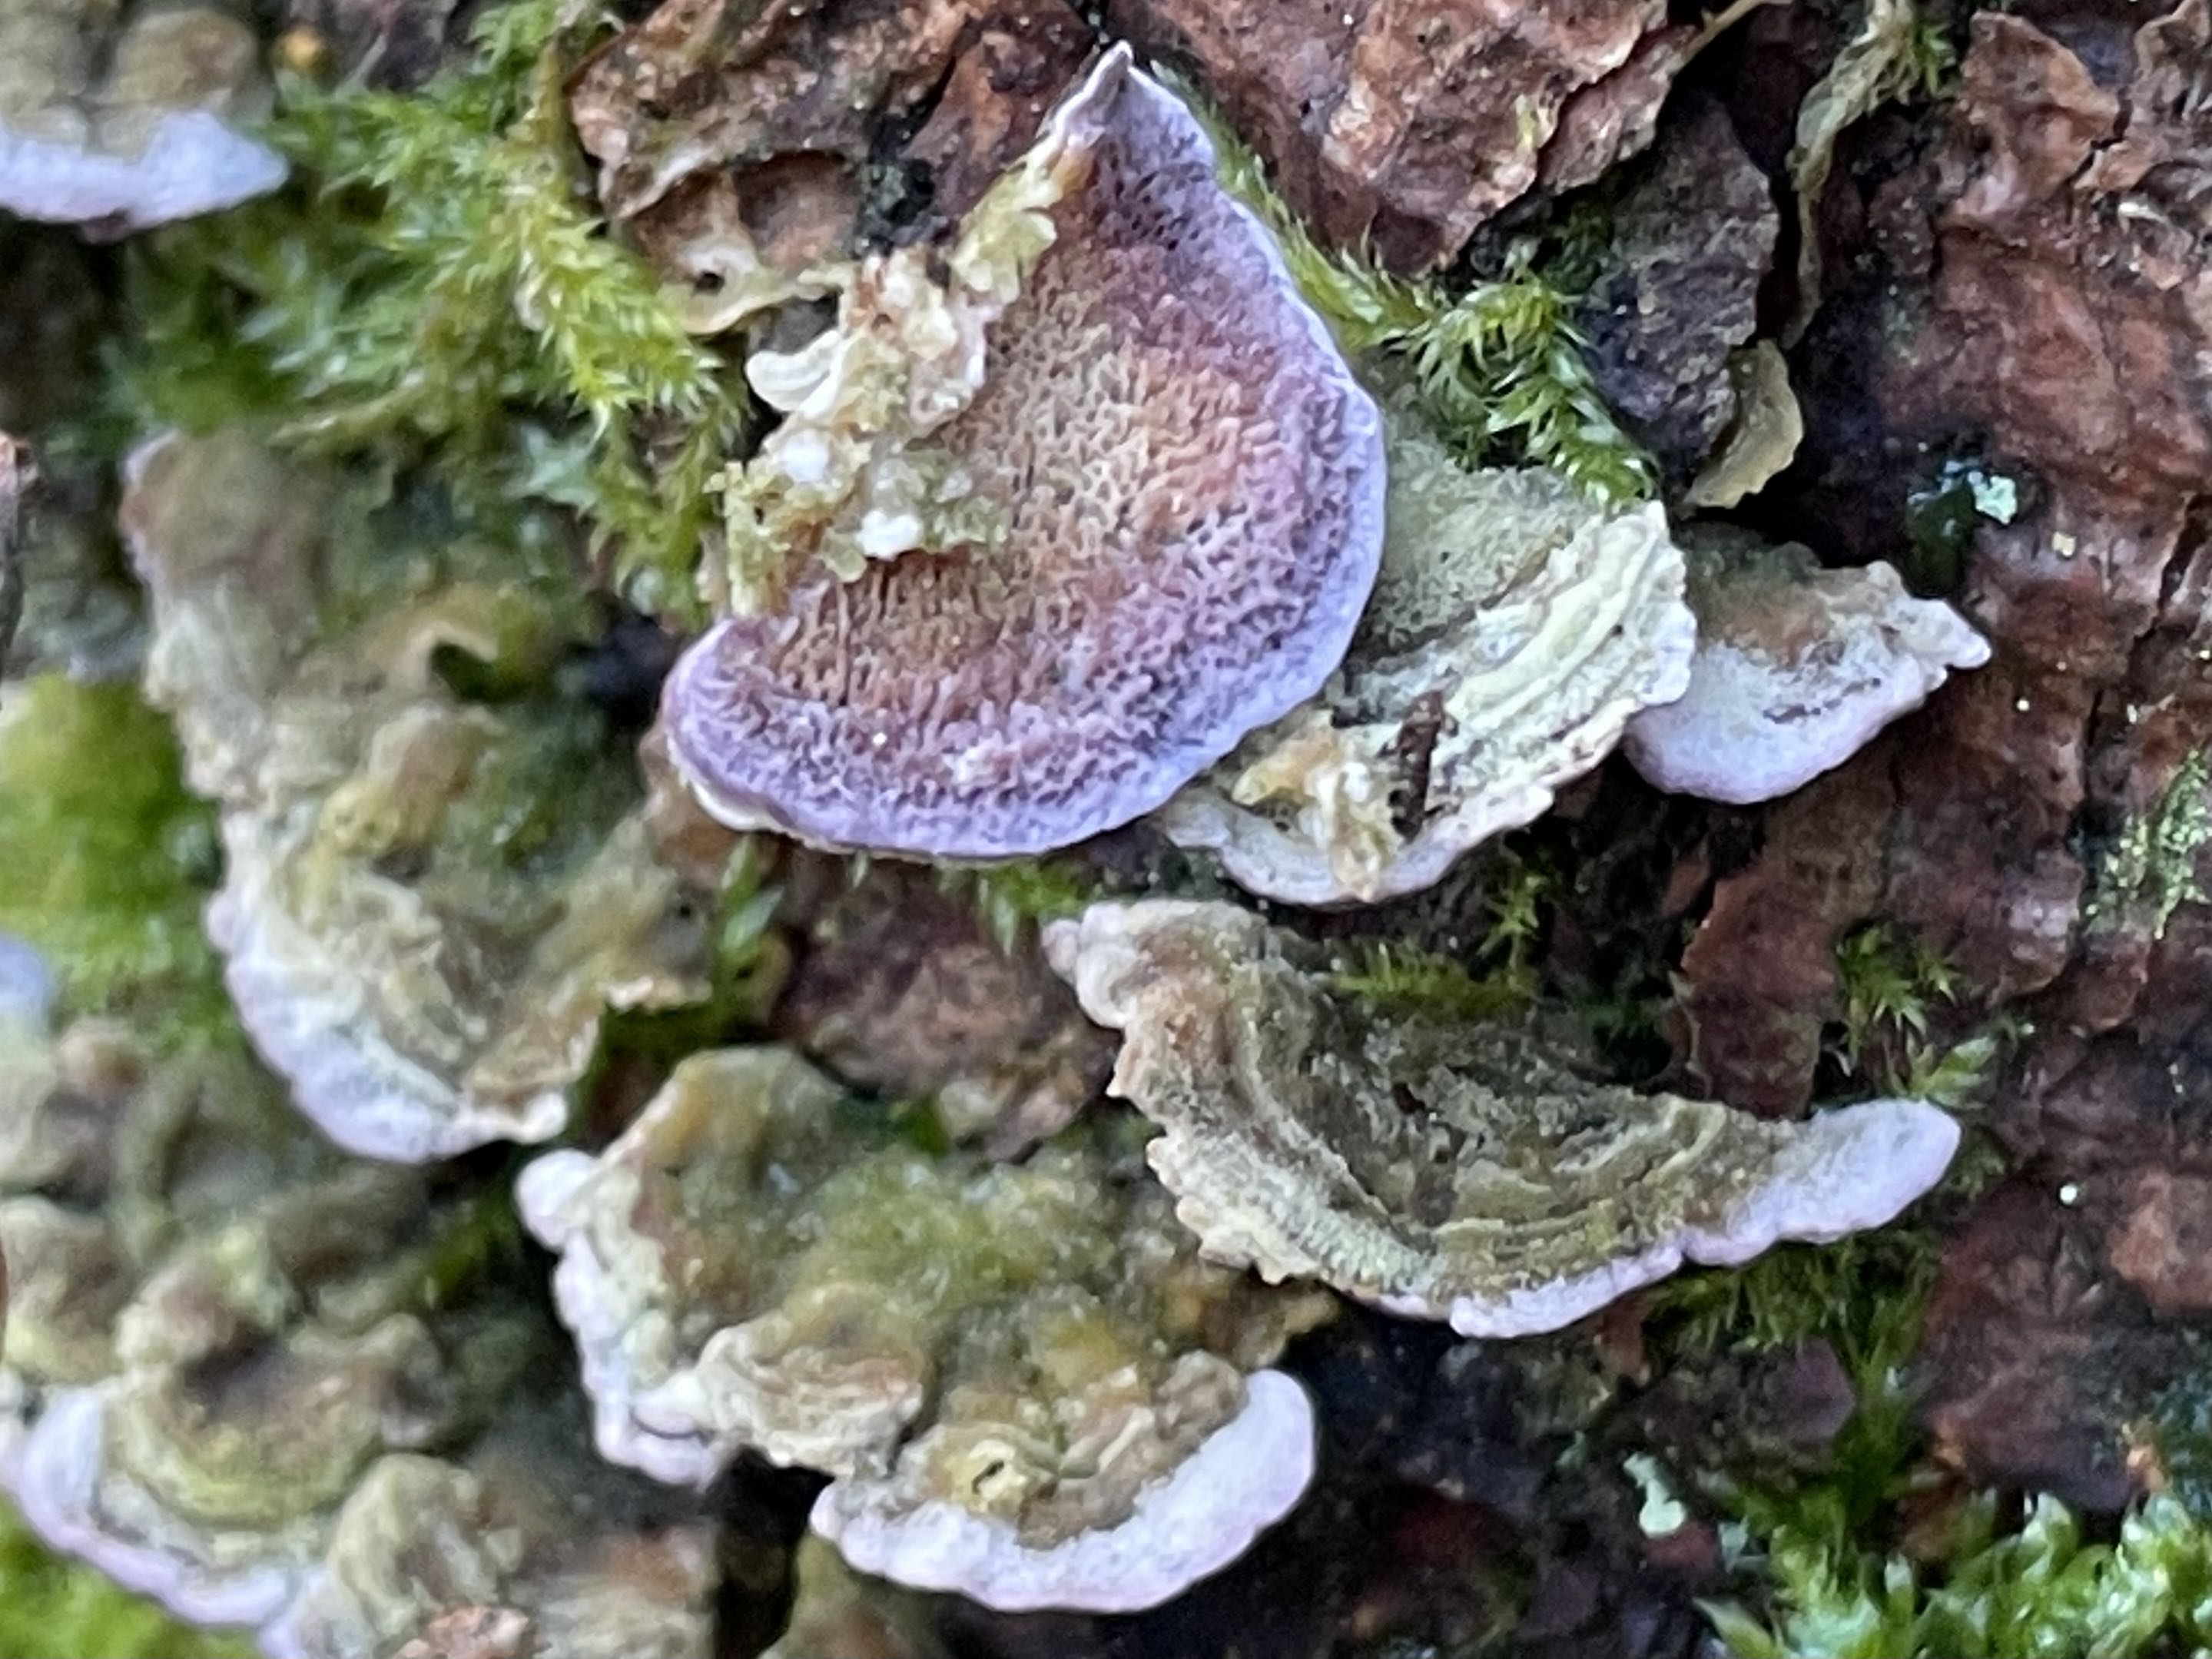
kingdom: Fungi
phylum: Basidiomycota
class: Agaricomycetes
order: Hymenochaetales
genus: Trichaptum
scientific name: Trichaptum fuscoviolaceum
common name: tandet violporesvamp
